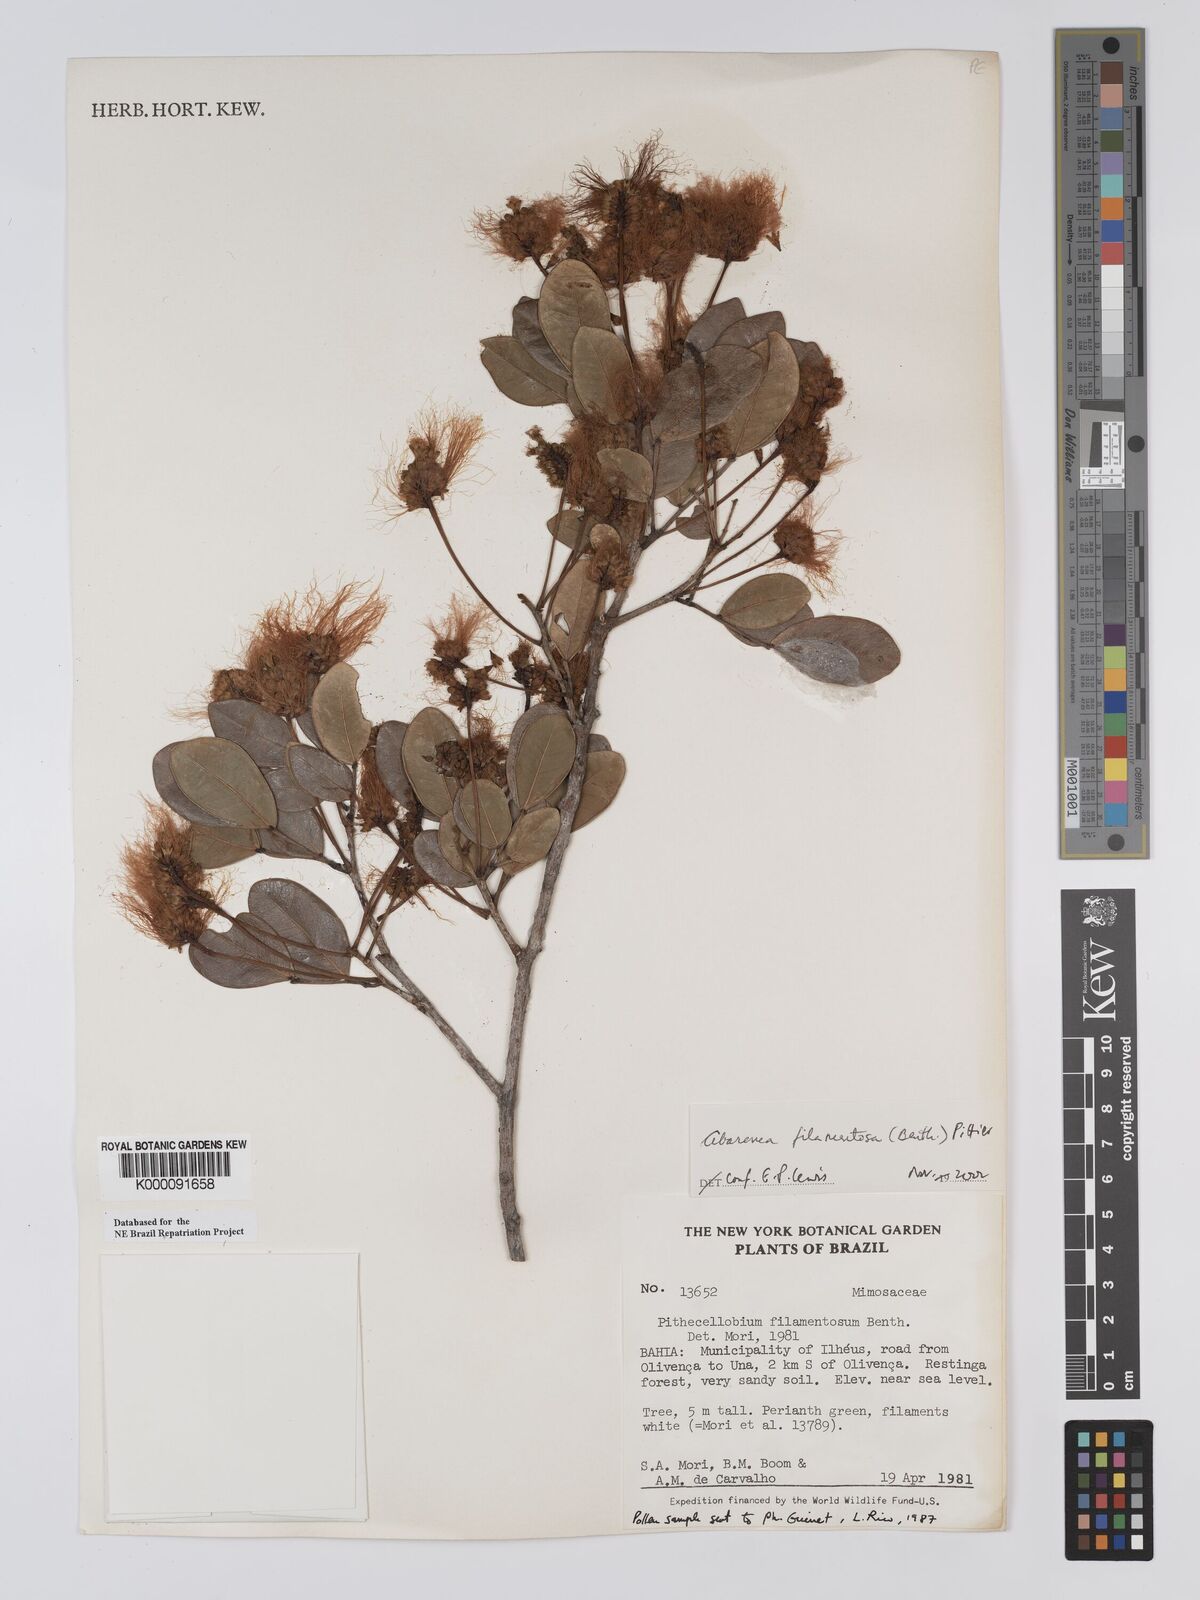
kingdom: Plantae
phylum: Tracheophyta
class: Magnoliopsida
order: Fabales
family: Fabaceae
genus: Jupunba
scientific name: Jupunba filamentosa
